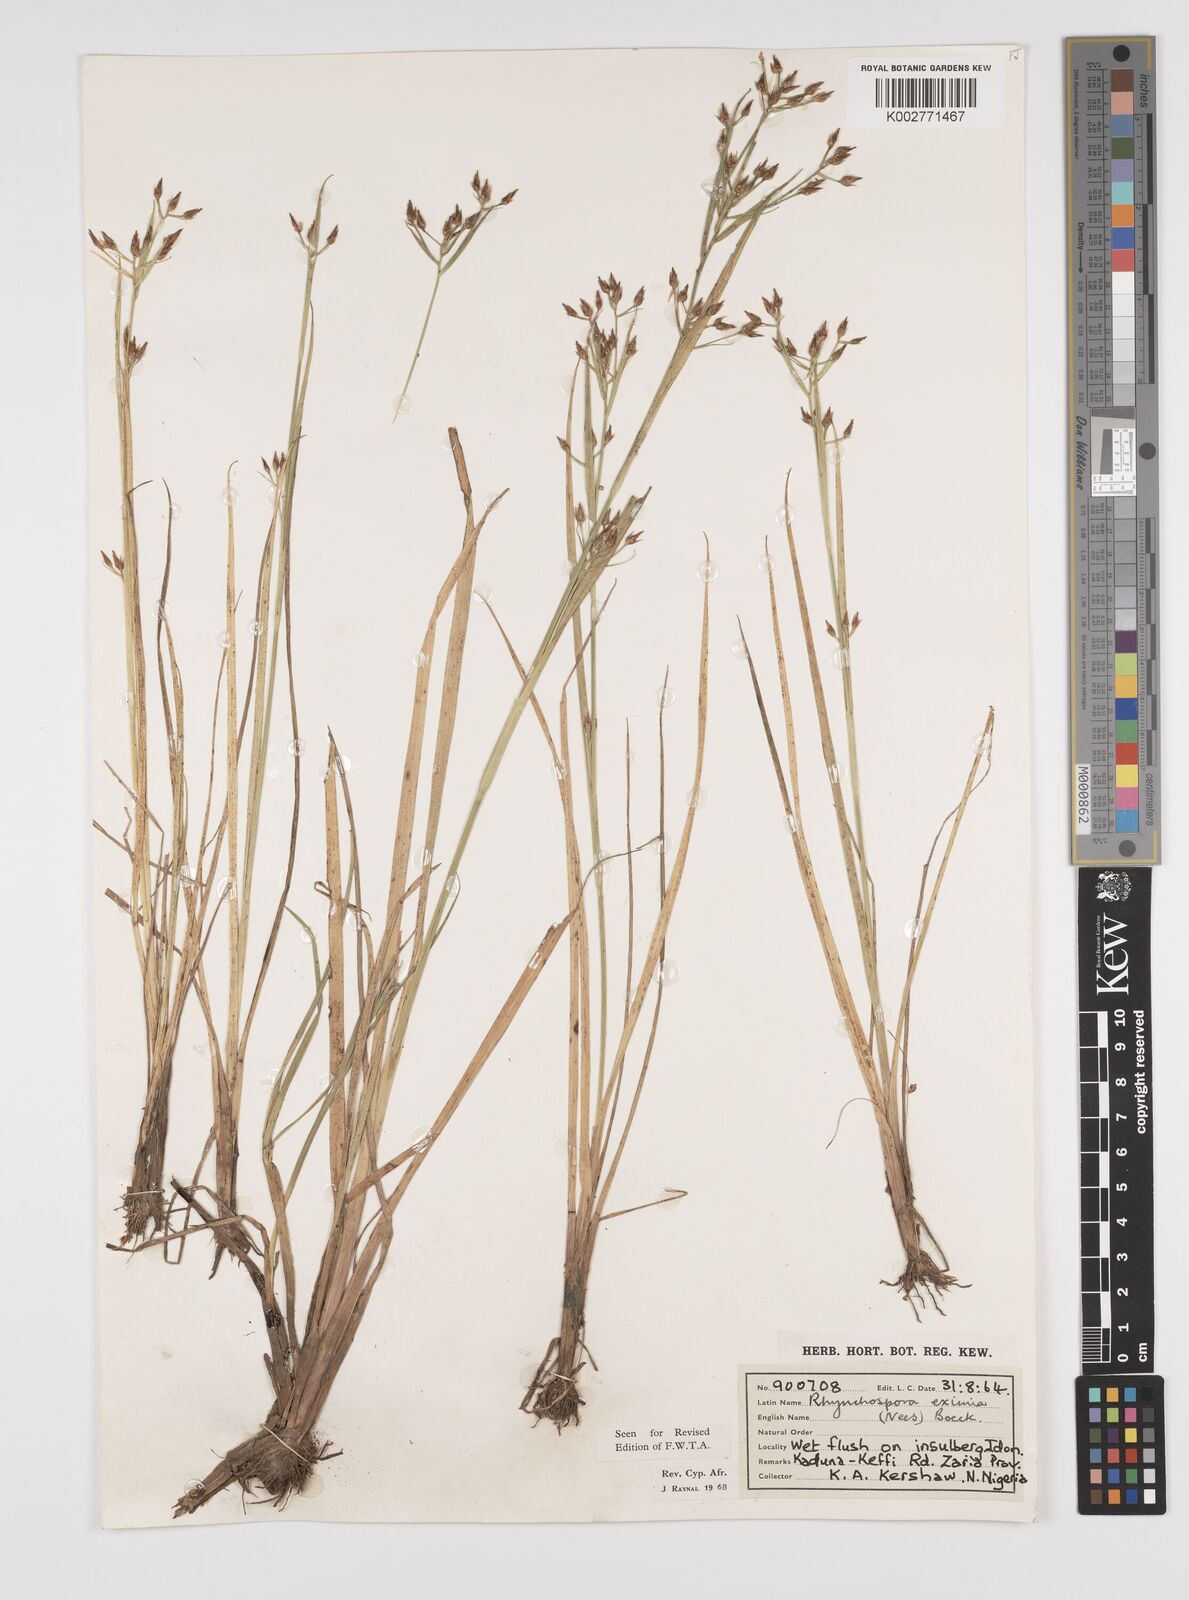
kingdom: Plantae
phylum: Tracheophyta
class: Liliopsida
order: Poales
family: Cyperaceae
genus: Rhynchospora
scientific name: Rhynchospora eximia
